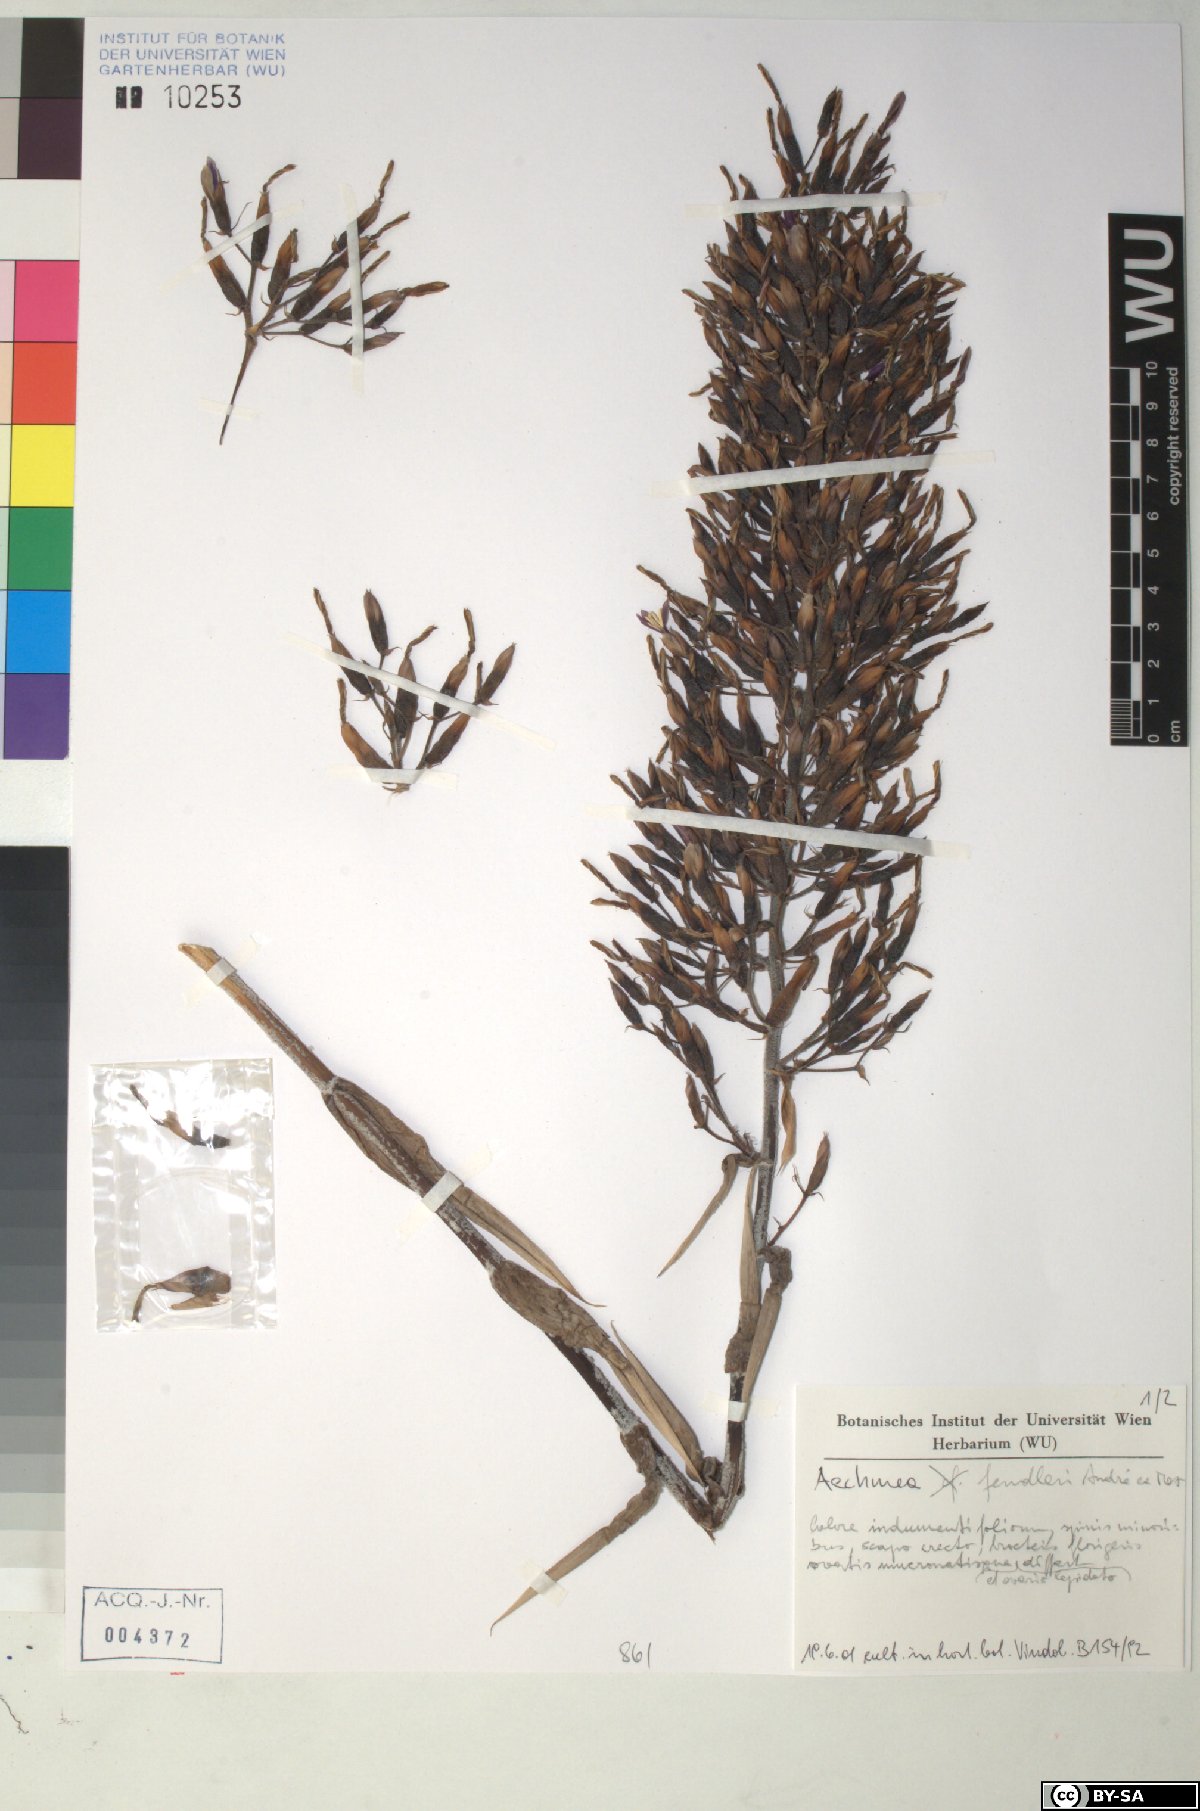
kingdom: Plantae
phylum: Tracheophyta
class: Liliopsida
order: Poales
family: Bromeliaceae
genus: Aechmea
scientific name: Aechmea fendleri
